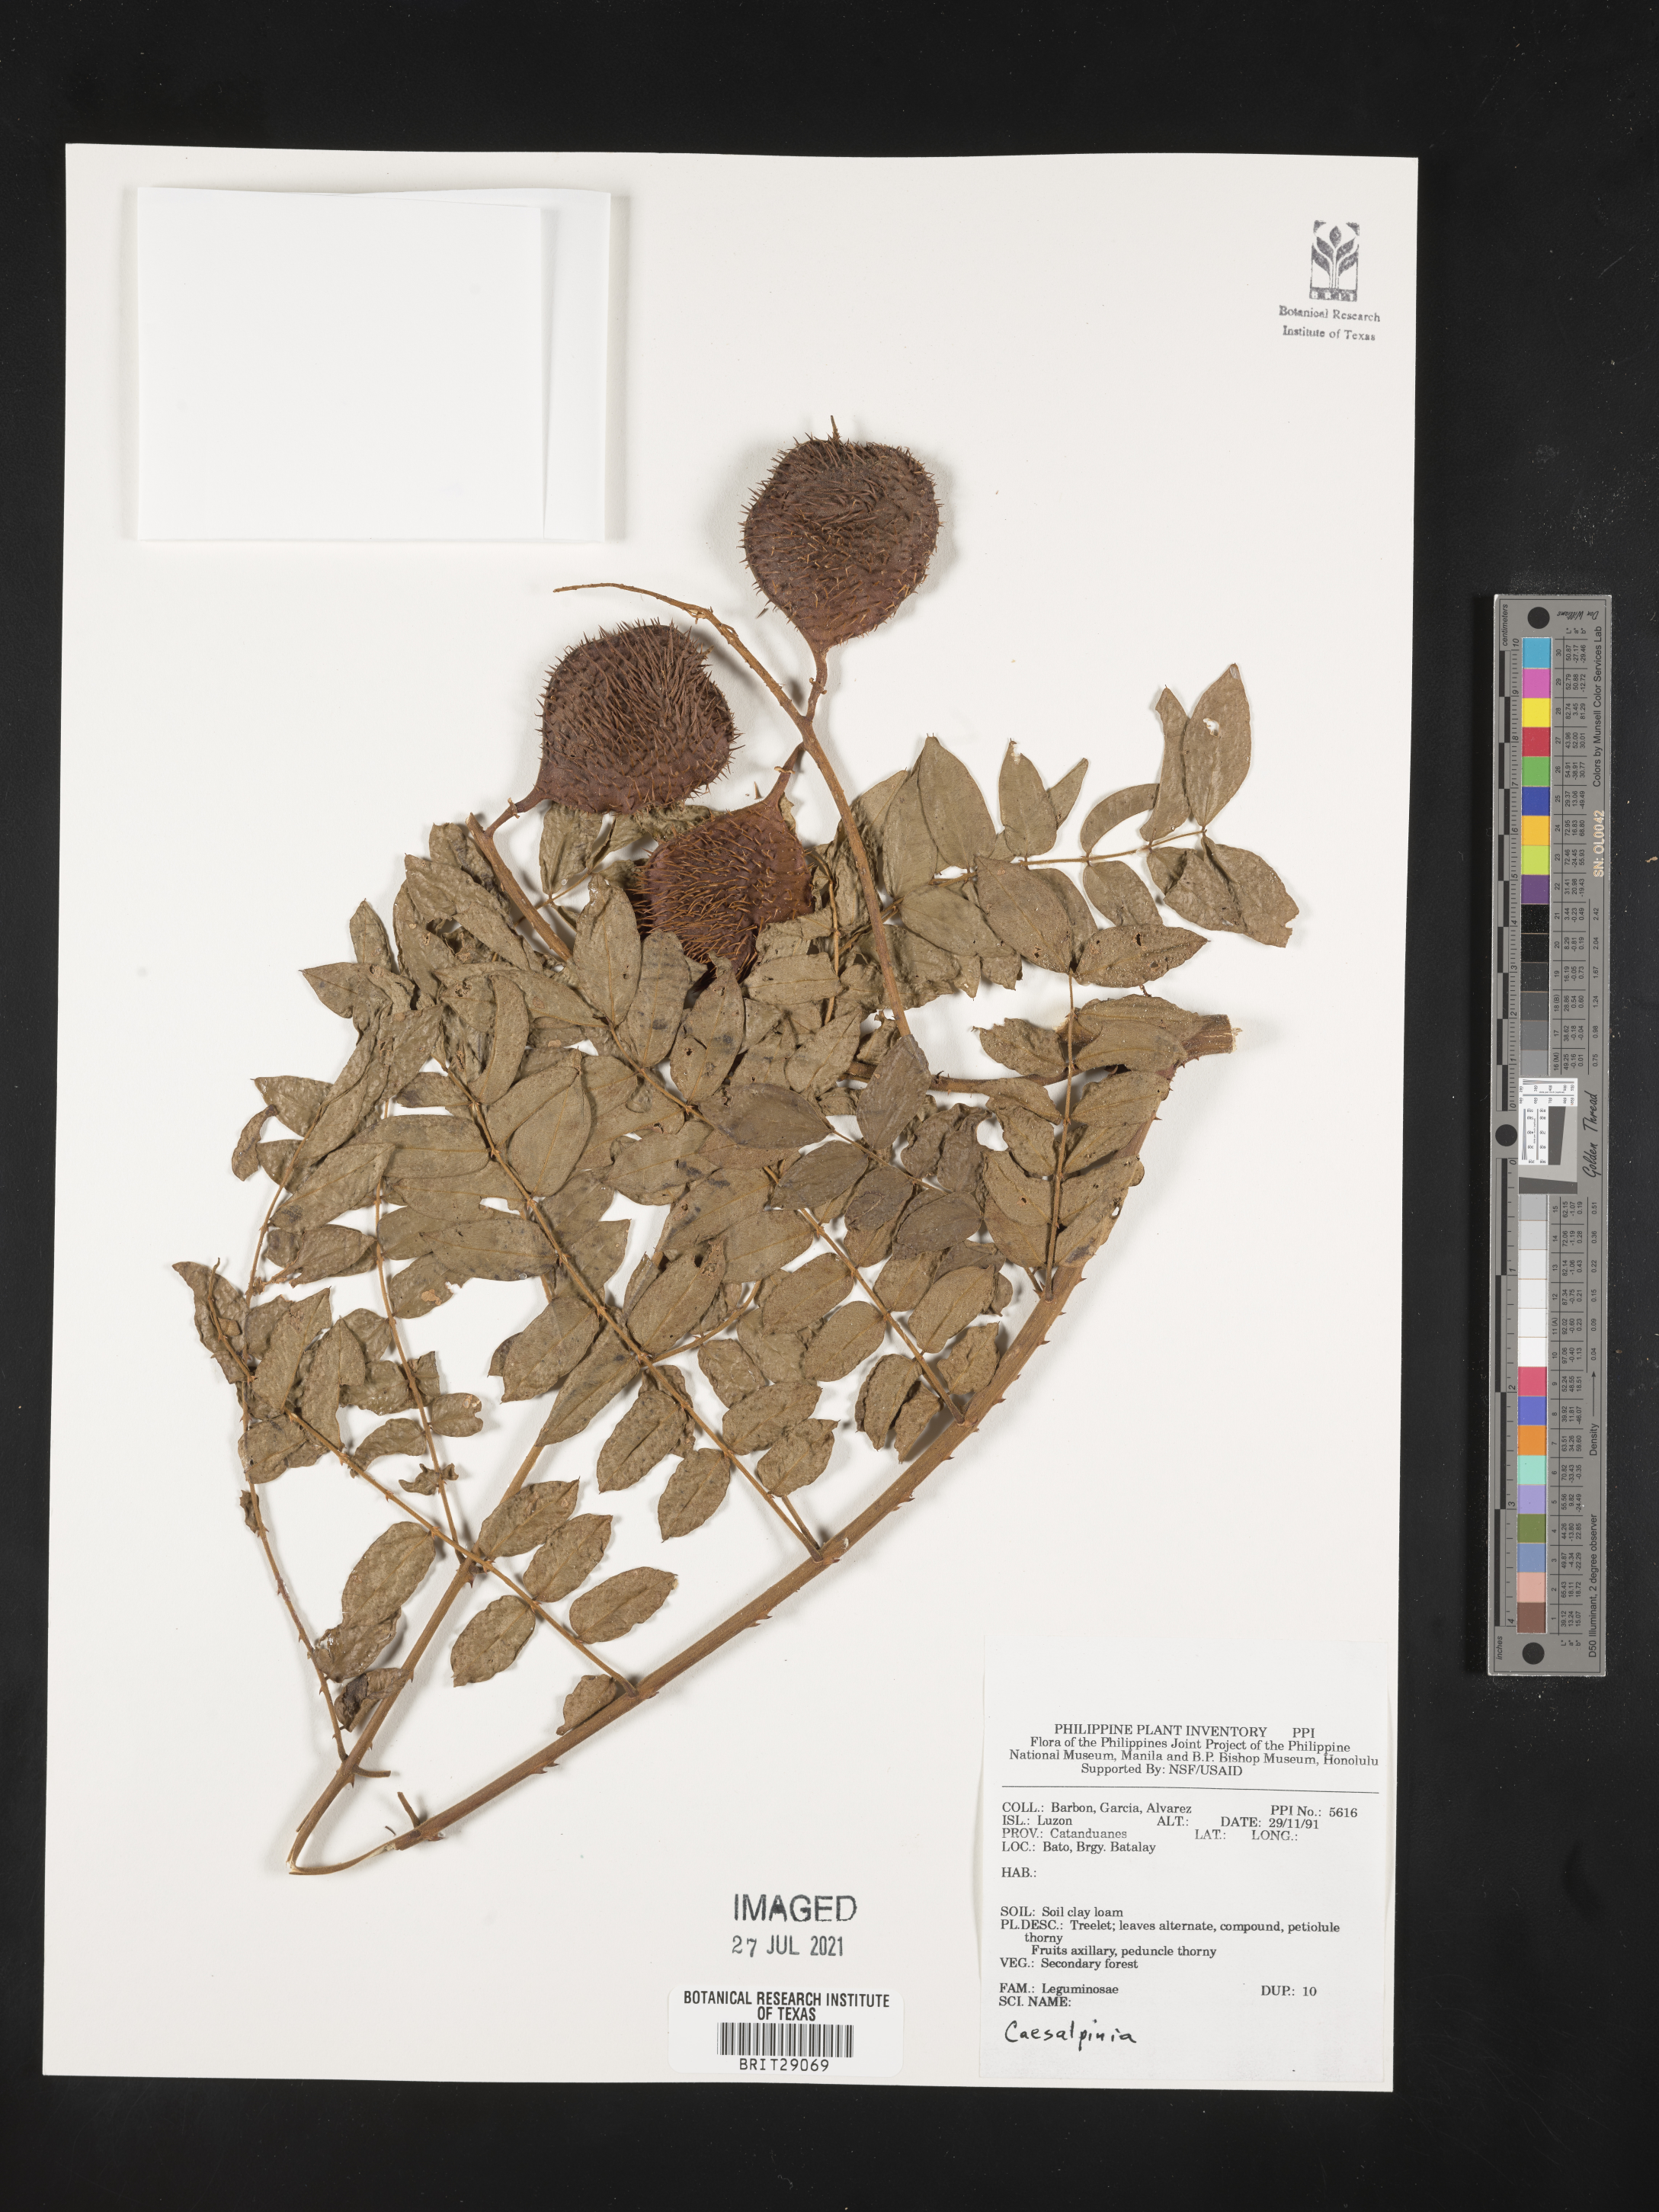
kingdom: Plantae
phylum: Tracheophyta
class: Magnoliopsida
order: Fabales
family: Fabaceae
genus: Caesalpinia
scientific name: Caesalpinia
